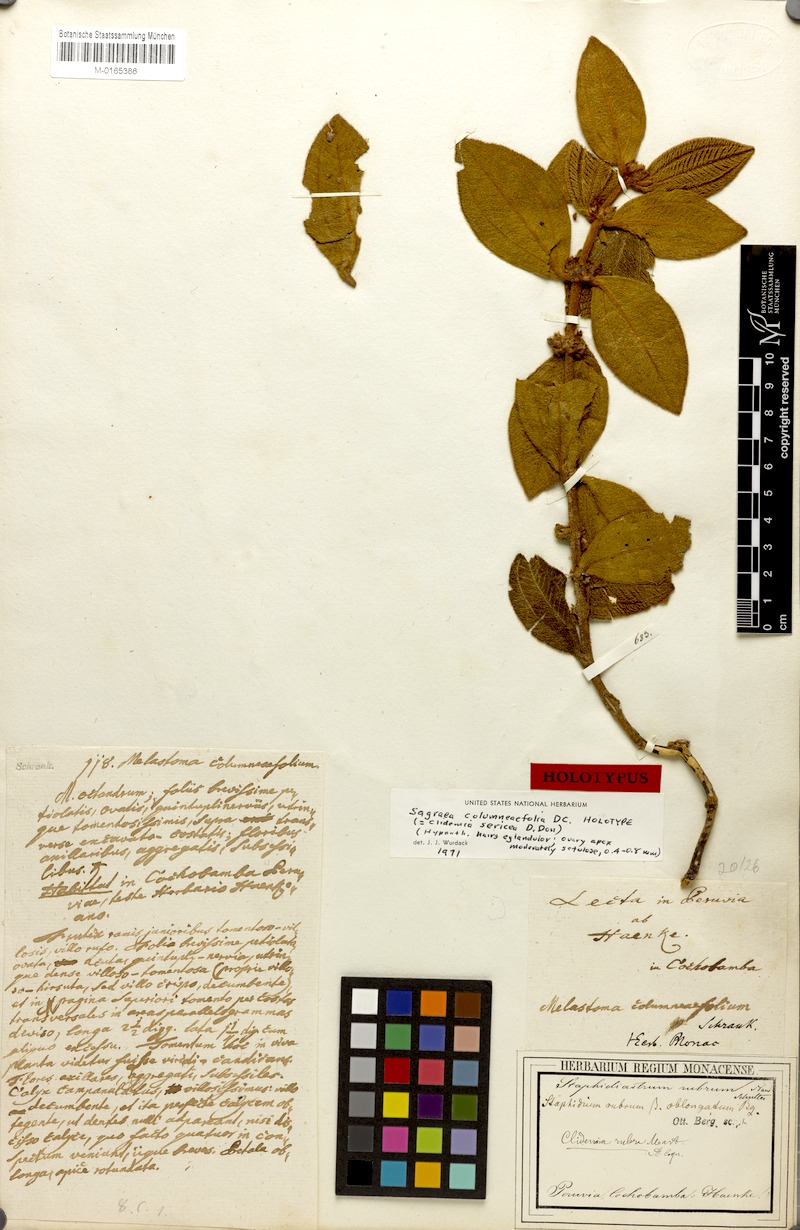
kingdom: Plantae
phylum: Tracheophyta
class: Magnoliopsida
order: Myrtales
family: Melastomataceae
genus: Miconia
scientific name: Miconia sericea
